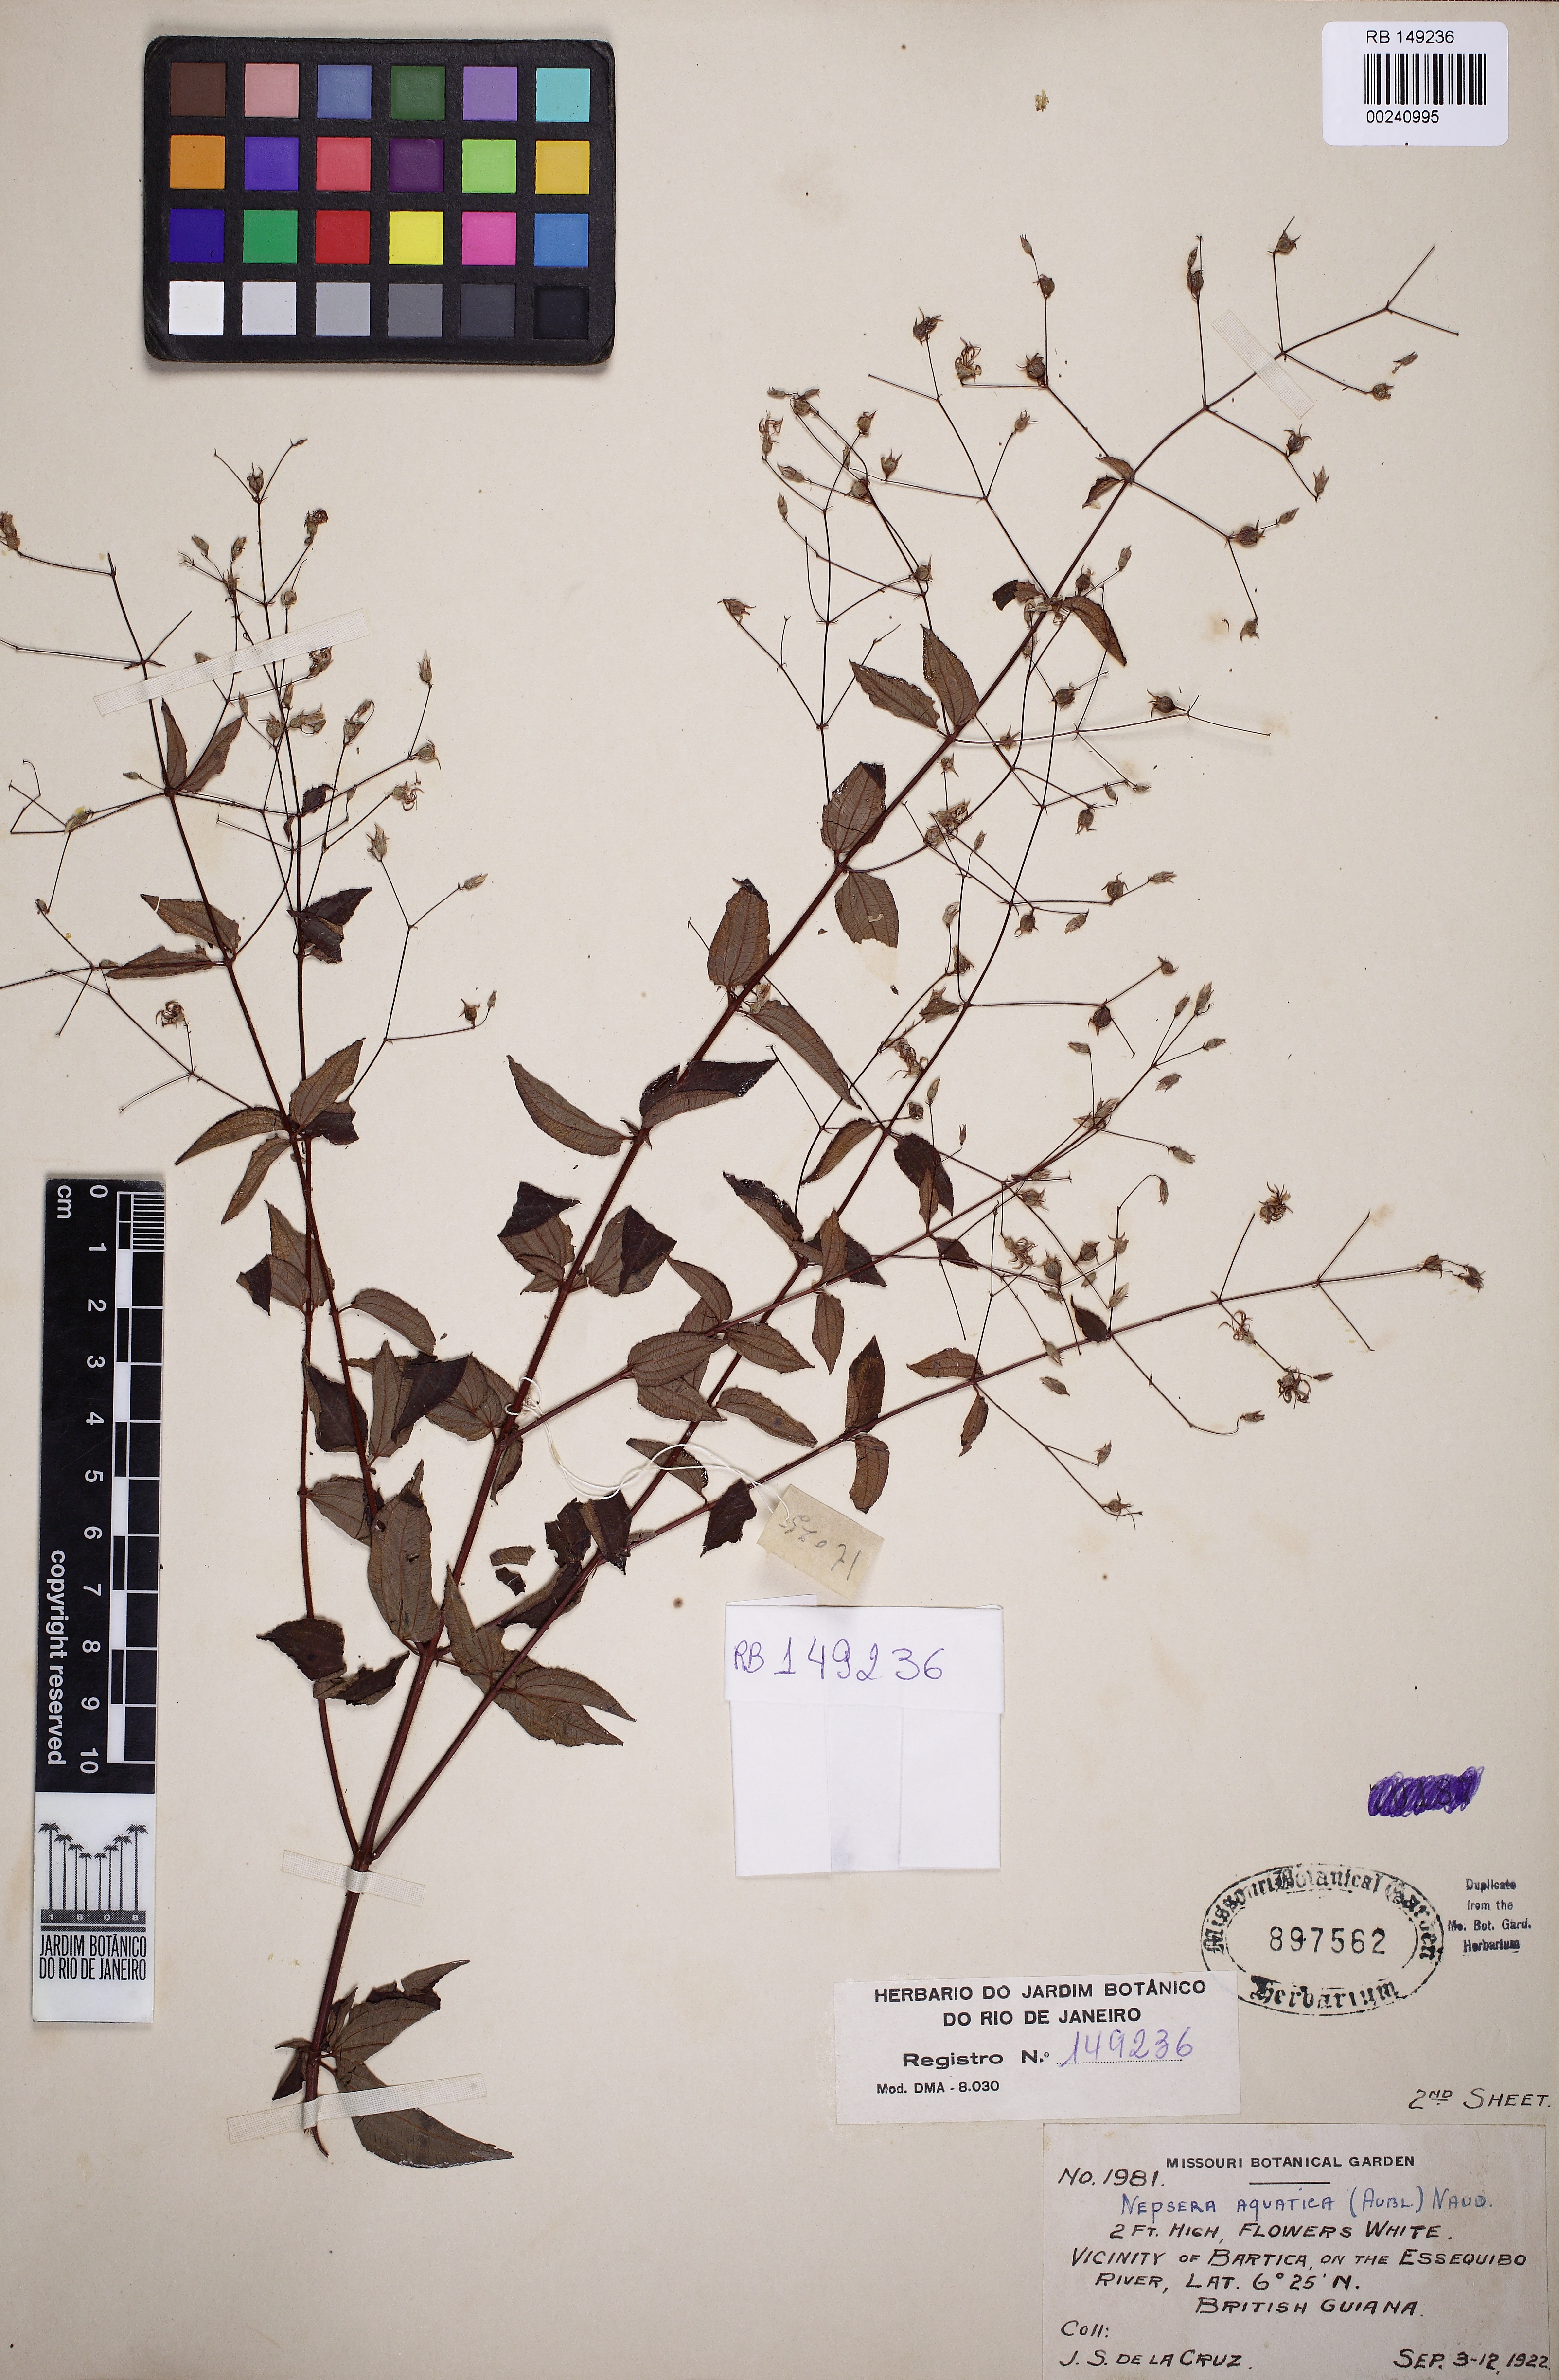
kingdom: Plantae
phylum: Tracheophyta
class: Magnoliopsida
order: Myrtales
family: Melastomataceae
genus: Nepsera
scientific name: Nepsera aquatica
